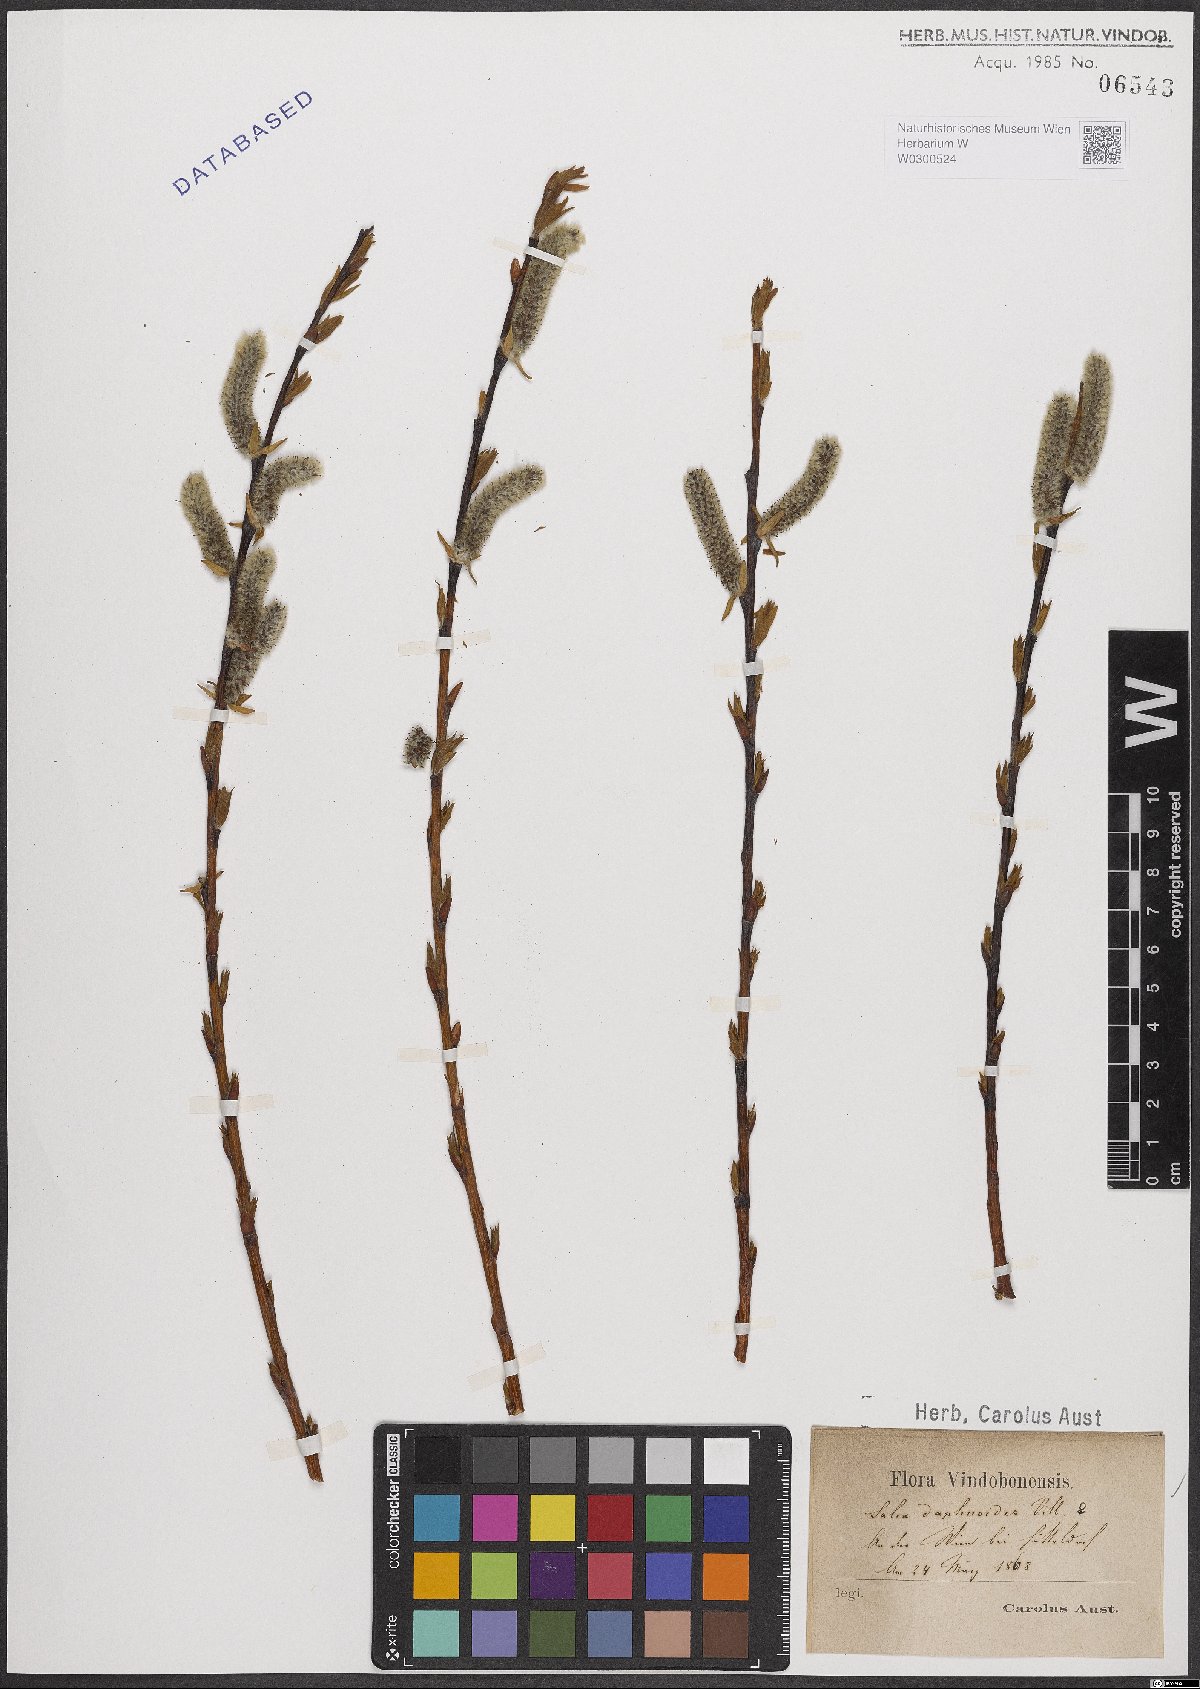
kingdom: Plantae
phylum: Tracheophyta
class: Magnoliopsida
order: Malpighiales
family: Salicaceae
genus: Salix
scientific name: Salix daphnoides
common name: European violet-willow
